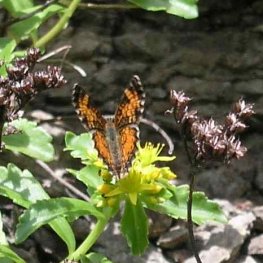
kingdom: Animalia
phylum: Arthropoda
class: Insecta
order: Lepidoptera
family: Nymphalidae
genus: Phyciodes
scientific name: Phyciodes tharos
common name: Pearl Crescent
